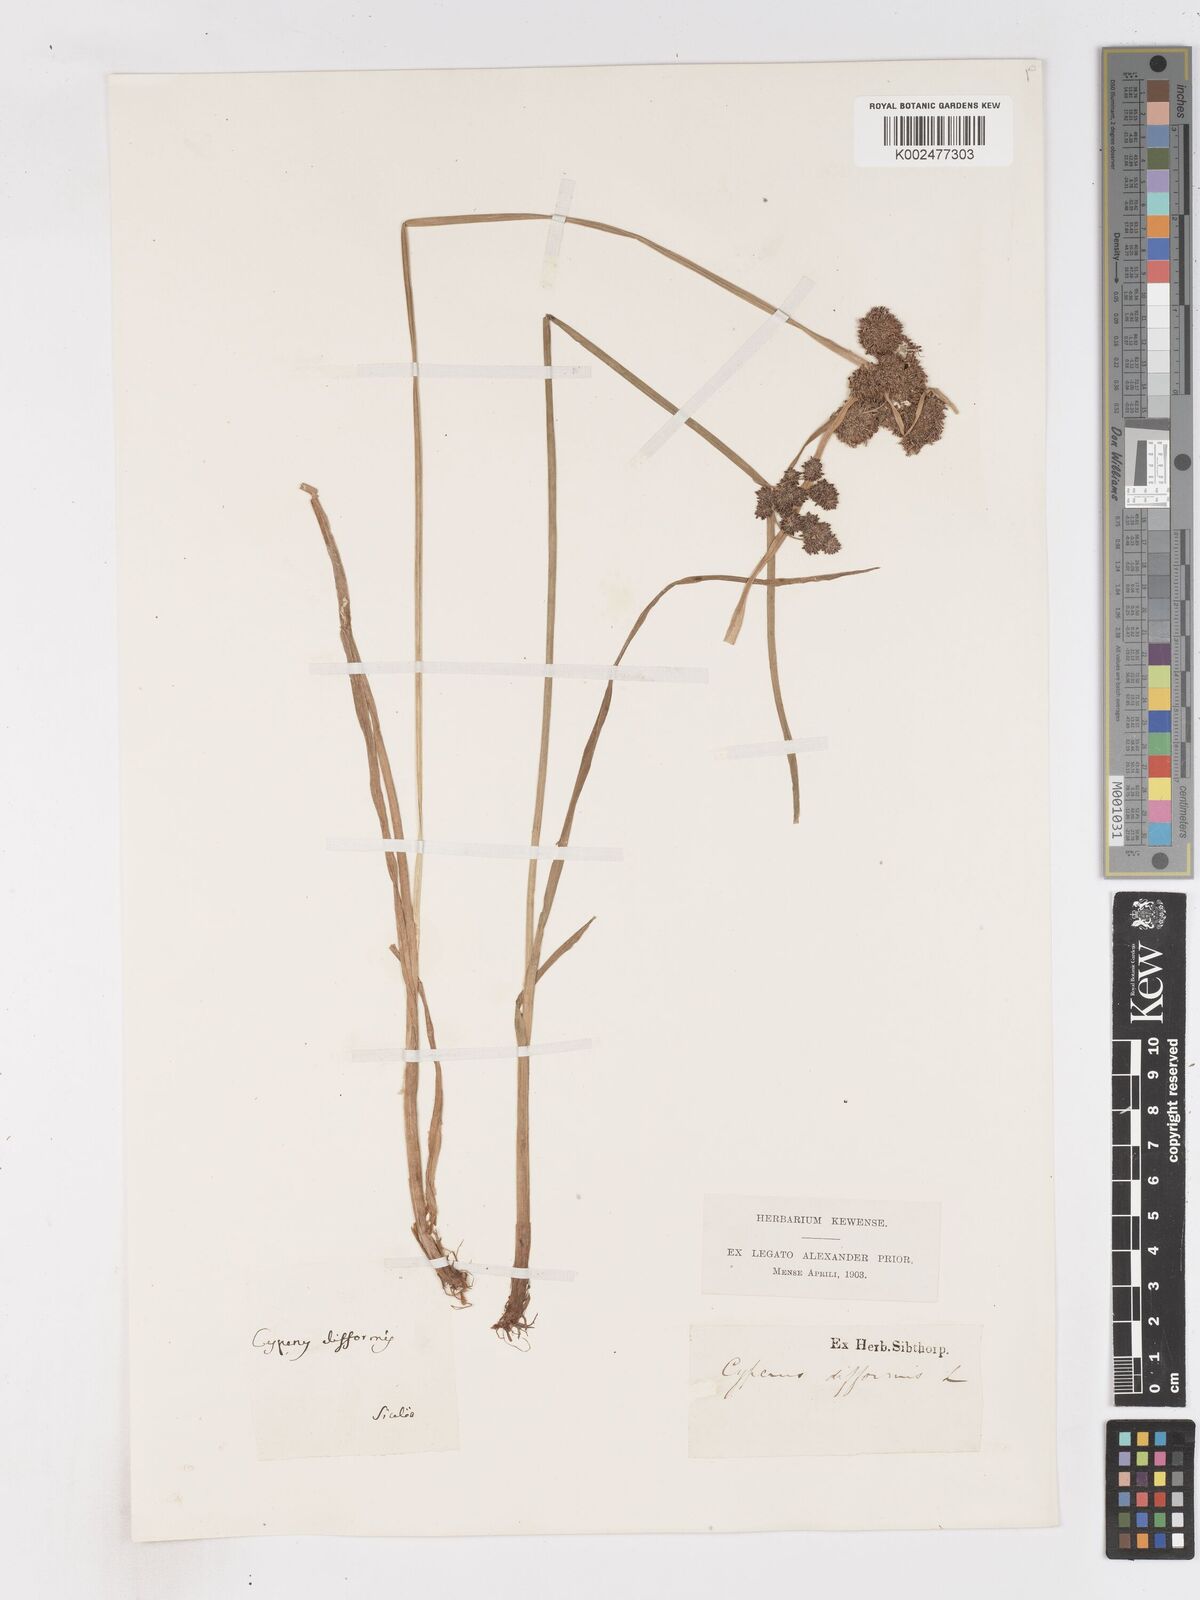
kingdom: Plantae
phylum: Tracheophyta
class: Liliopsida
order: Poales
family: Cyperaceae
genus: Cyperus
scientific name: Cyperus difformis
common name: Variable flatsedge
